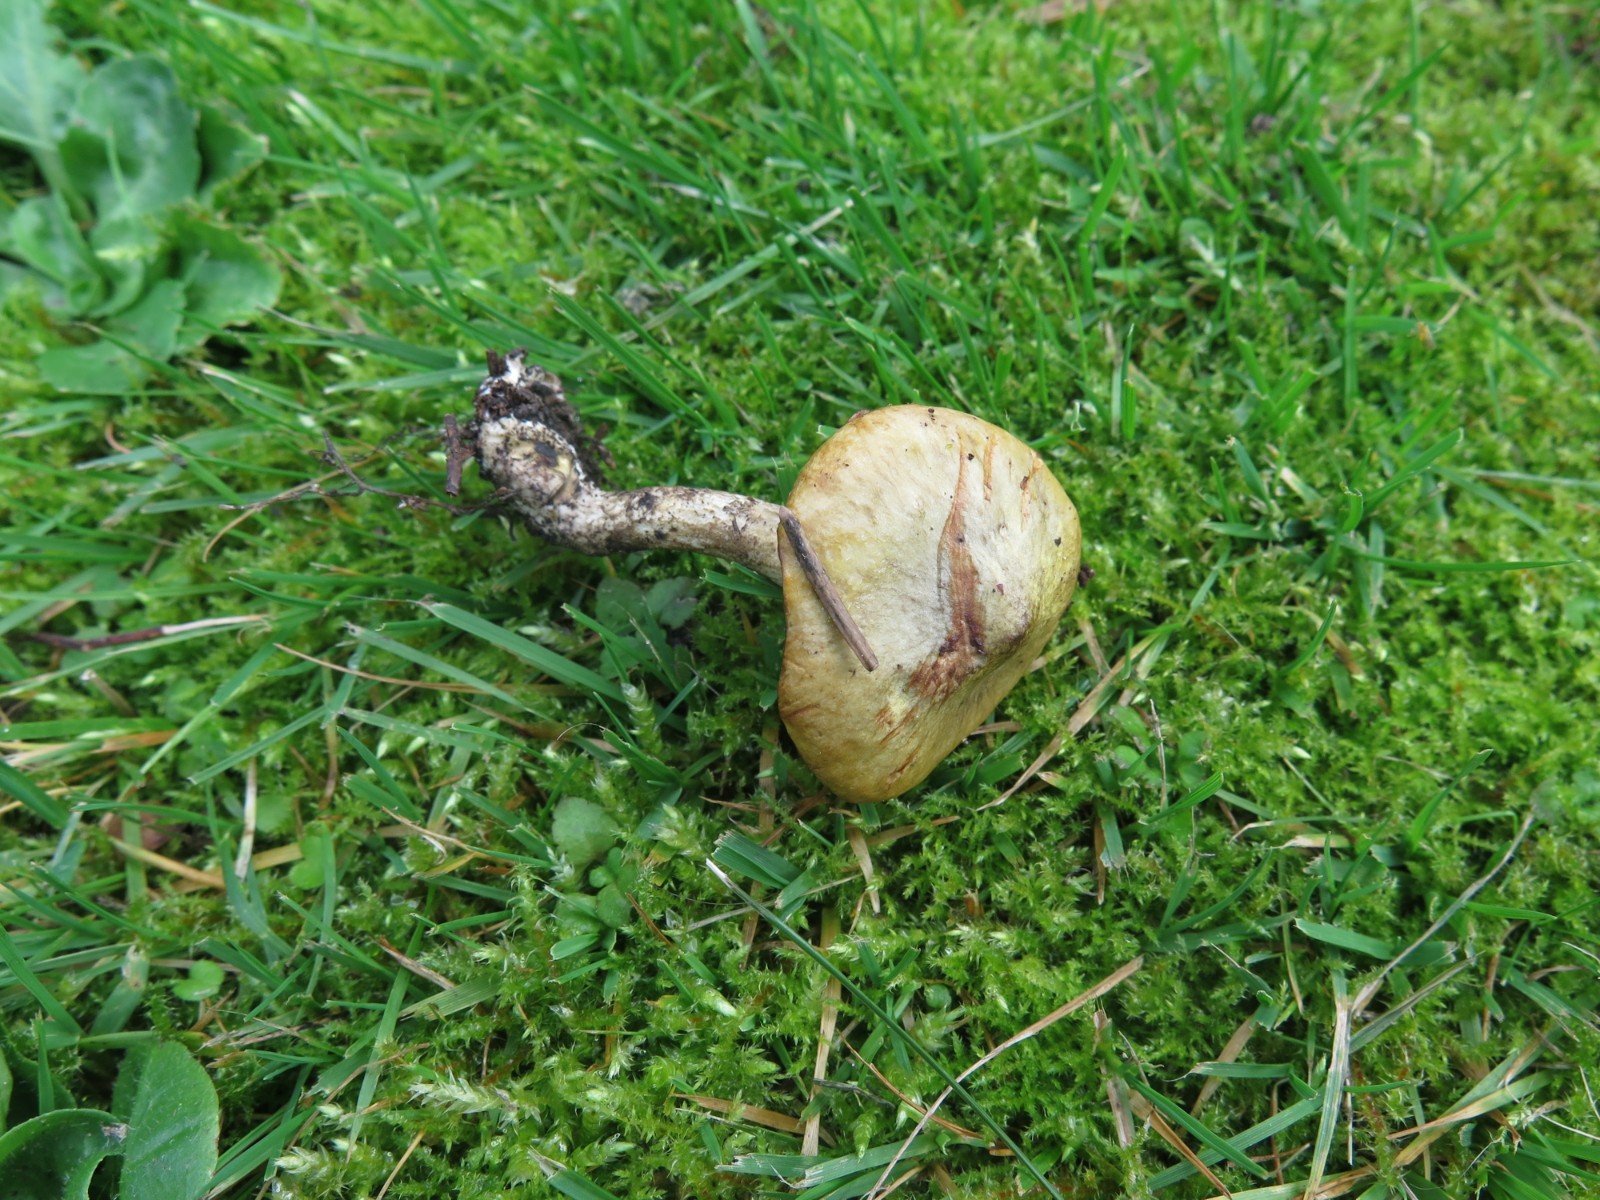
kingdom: Fungi
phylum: Basidiomycota
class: Agaricomycetes
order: Boletales
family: Suillaceae
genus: Suillus
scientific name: Suillus flavidus
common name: mose-slimrørhat
